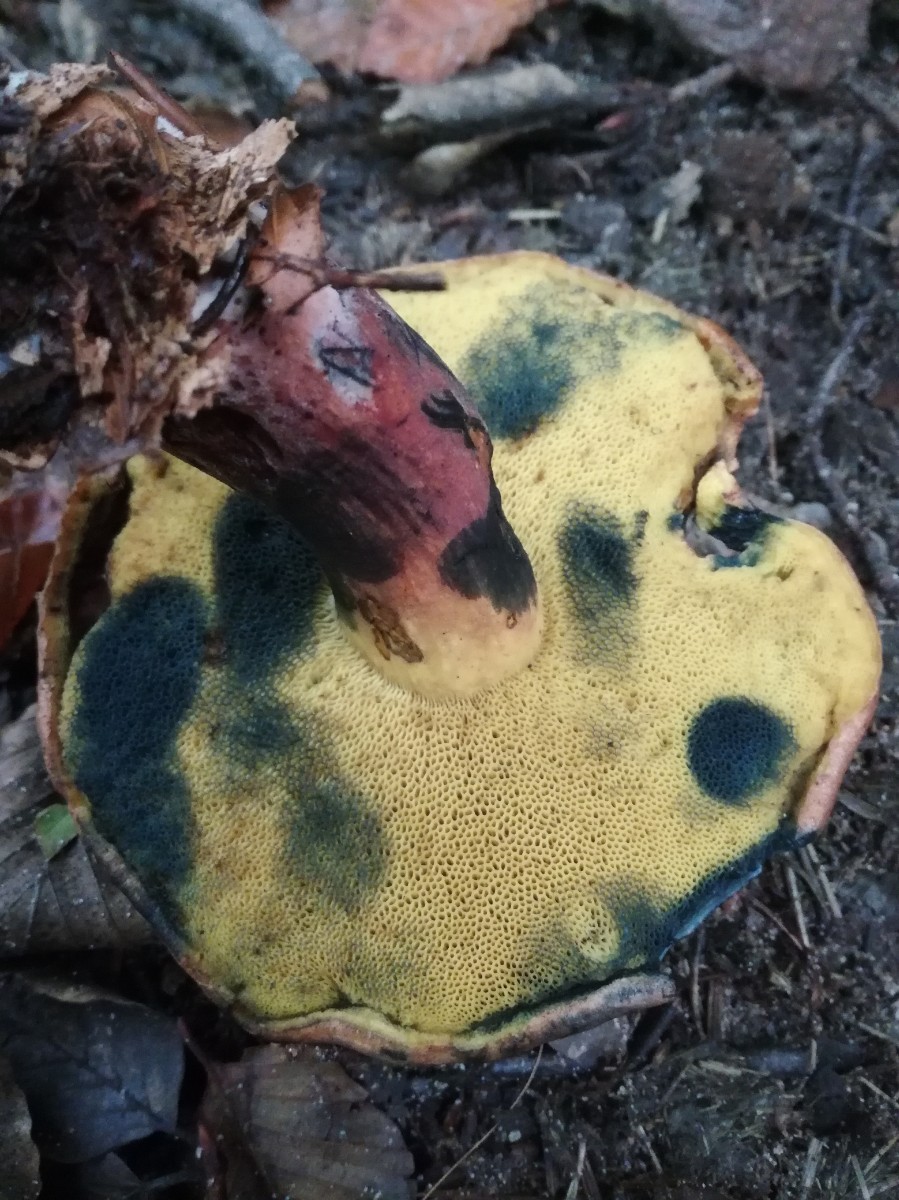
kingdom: Fungi
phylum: Basidiomycota
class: Agaricomycetes
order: Boletales
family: Boletaceae
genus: Cyanoboletus
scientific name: Cyanoboletus pulverulentus
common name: sortblånende rørhat
